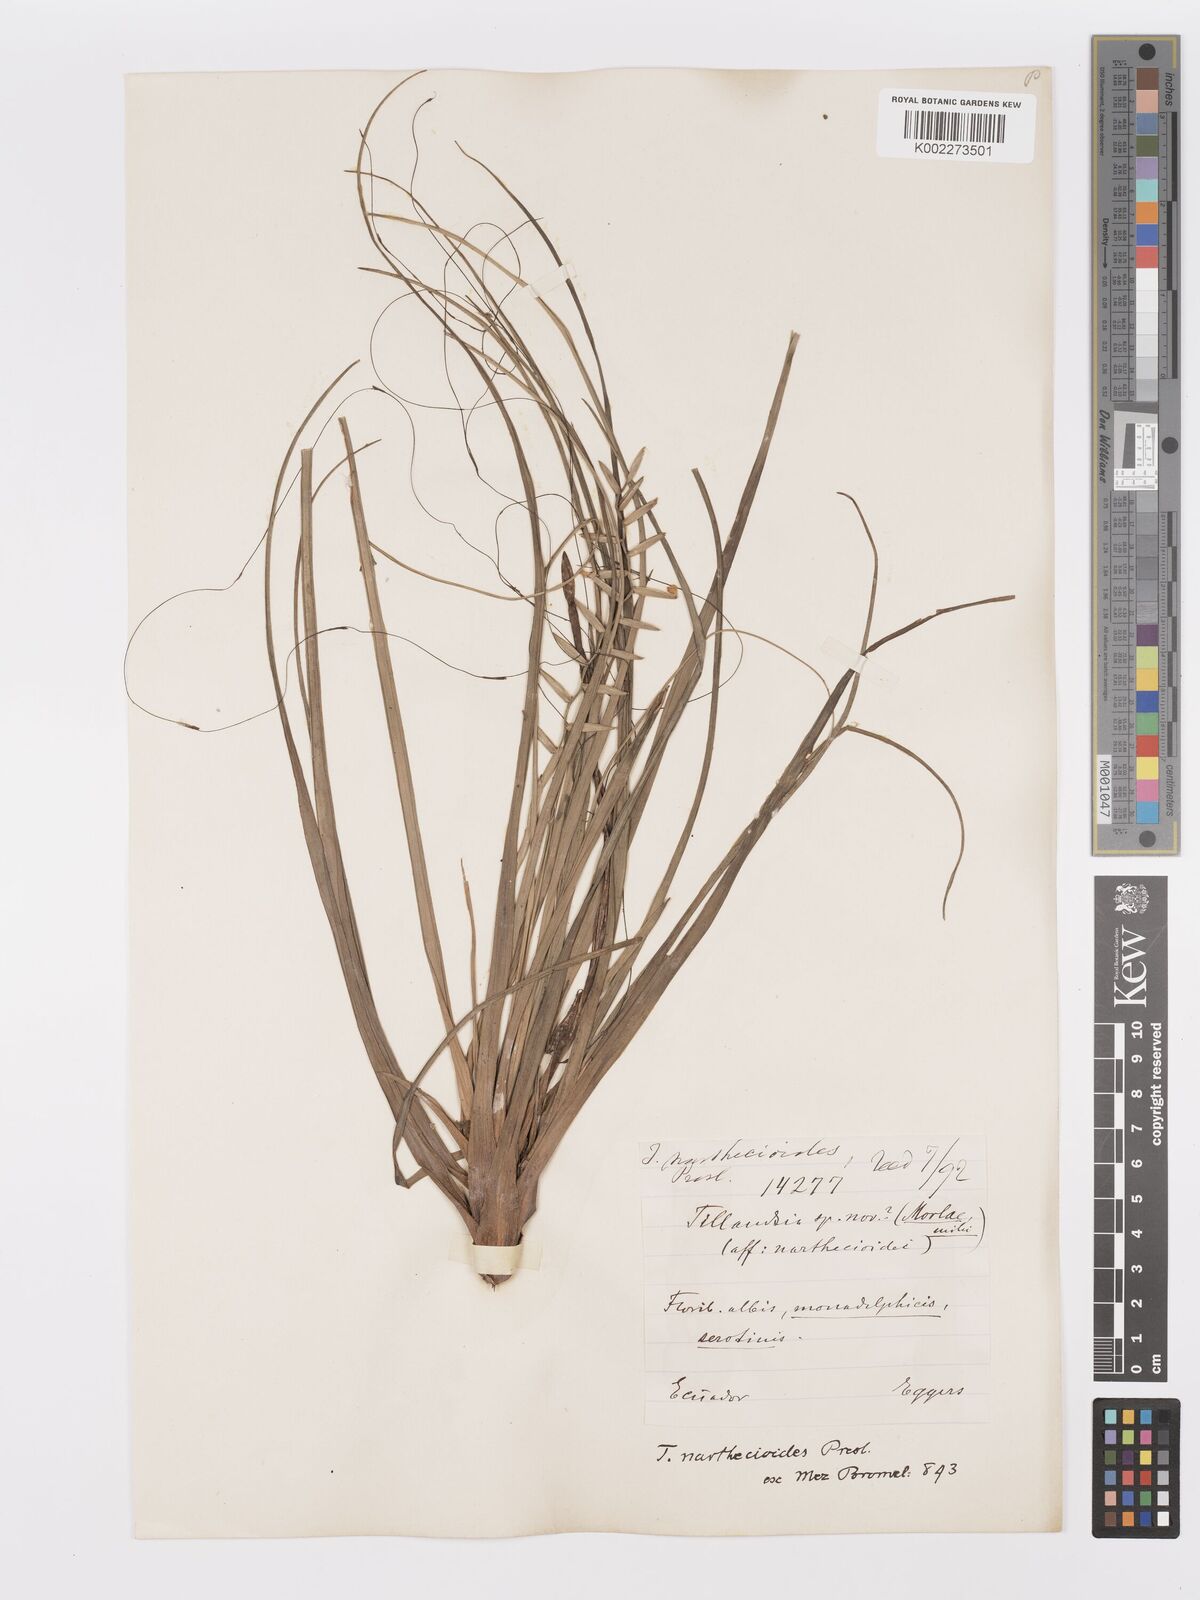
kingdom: Plantae
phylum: Tracheophyta
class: Liliopsida
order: Poales
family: Bromeliaceae
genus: Lemeltonia
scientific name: Lemeltonia narthecioides
